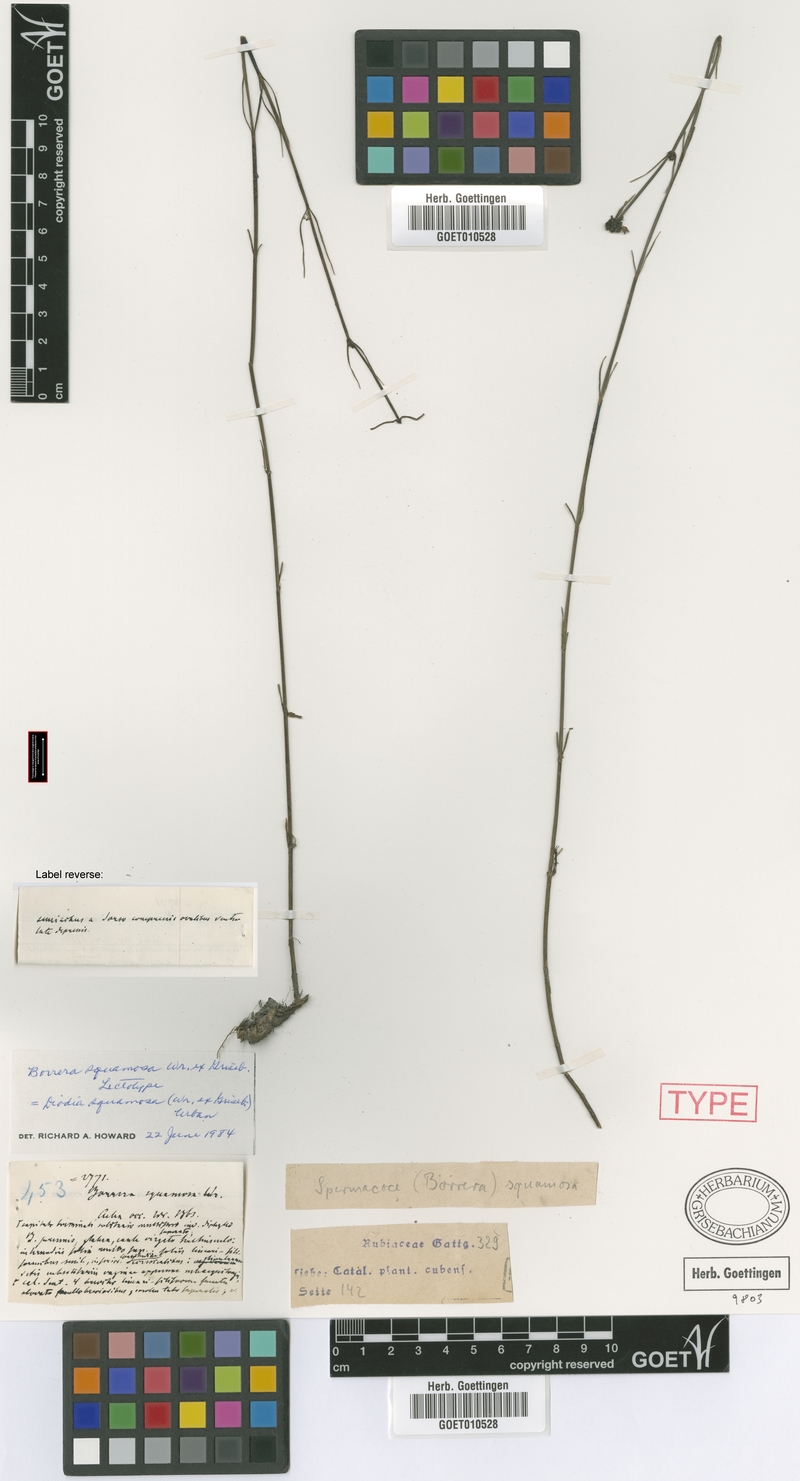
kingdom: Plantae
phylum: Tracheophyta
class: Magnoliopsida
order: Gentianales
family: Rubiaceae
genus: Spermacoce
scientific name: Spermacoce squamosa
